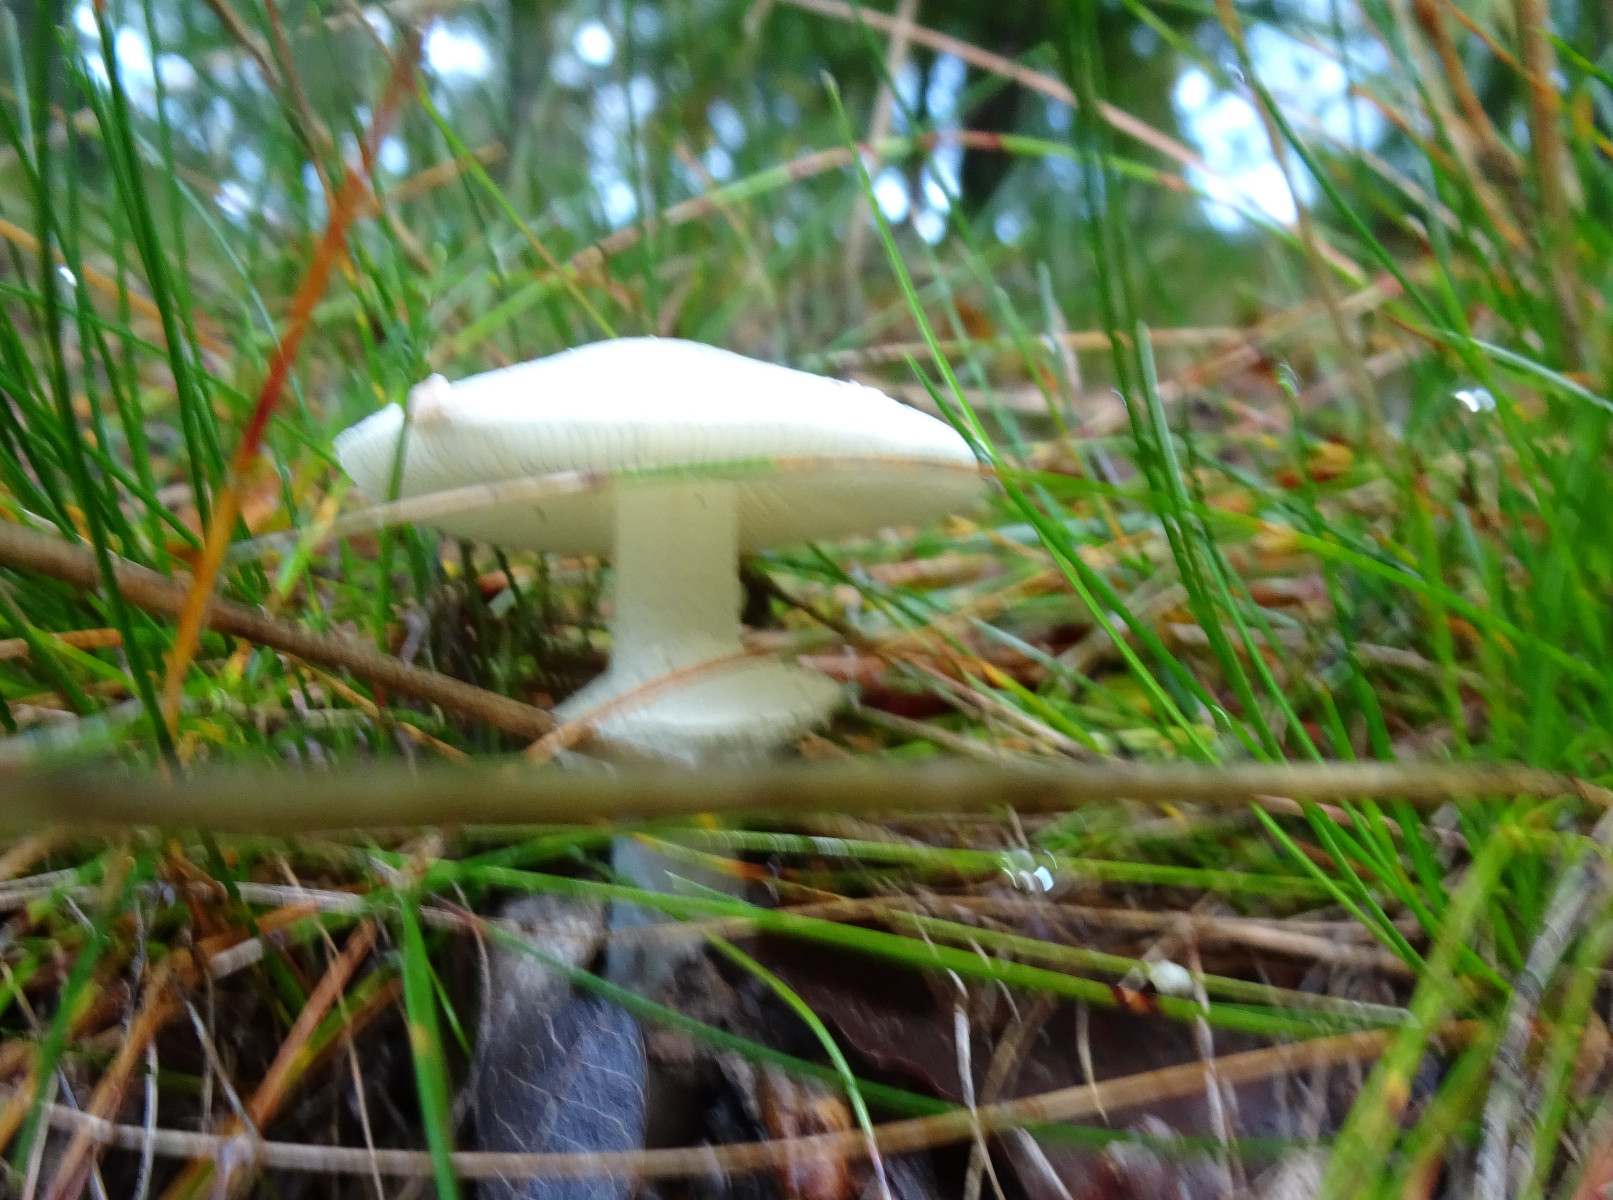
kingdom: Fungi
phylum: Basidiomycota
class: Agaricomycetes
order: Agaricales
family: Amanitaceae
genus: Amanita
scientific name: Amanita citrina
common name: False death-cap
